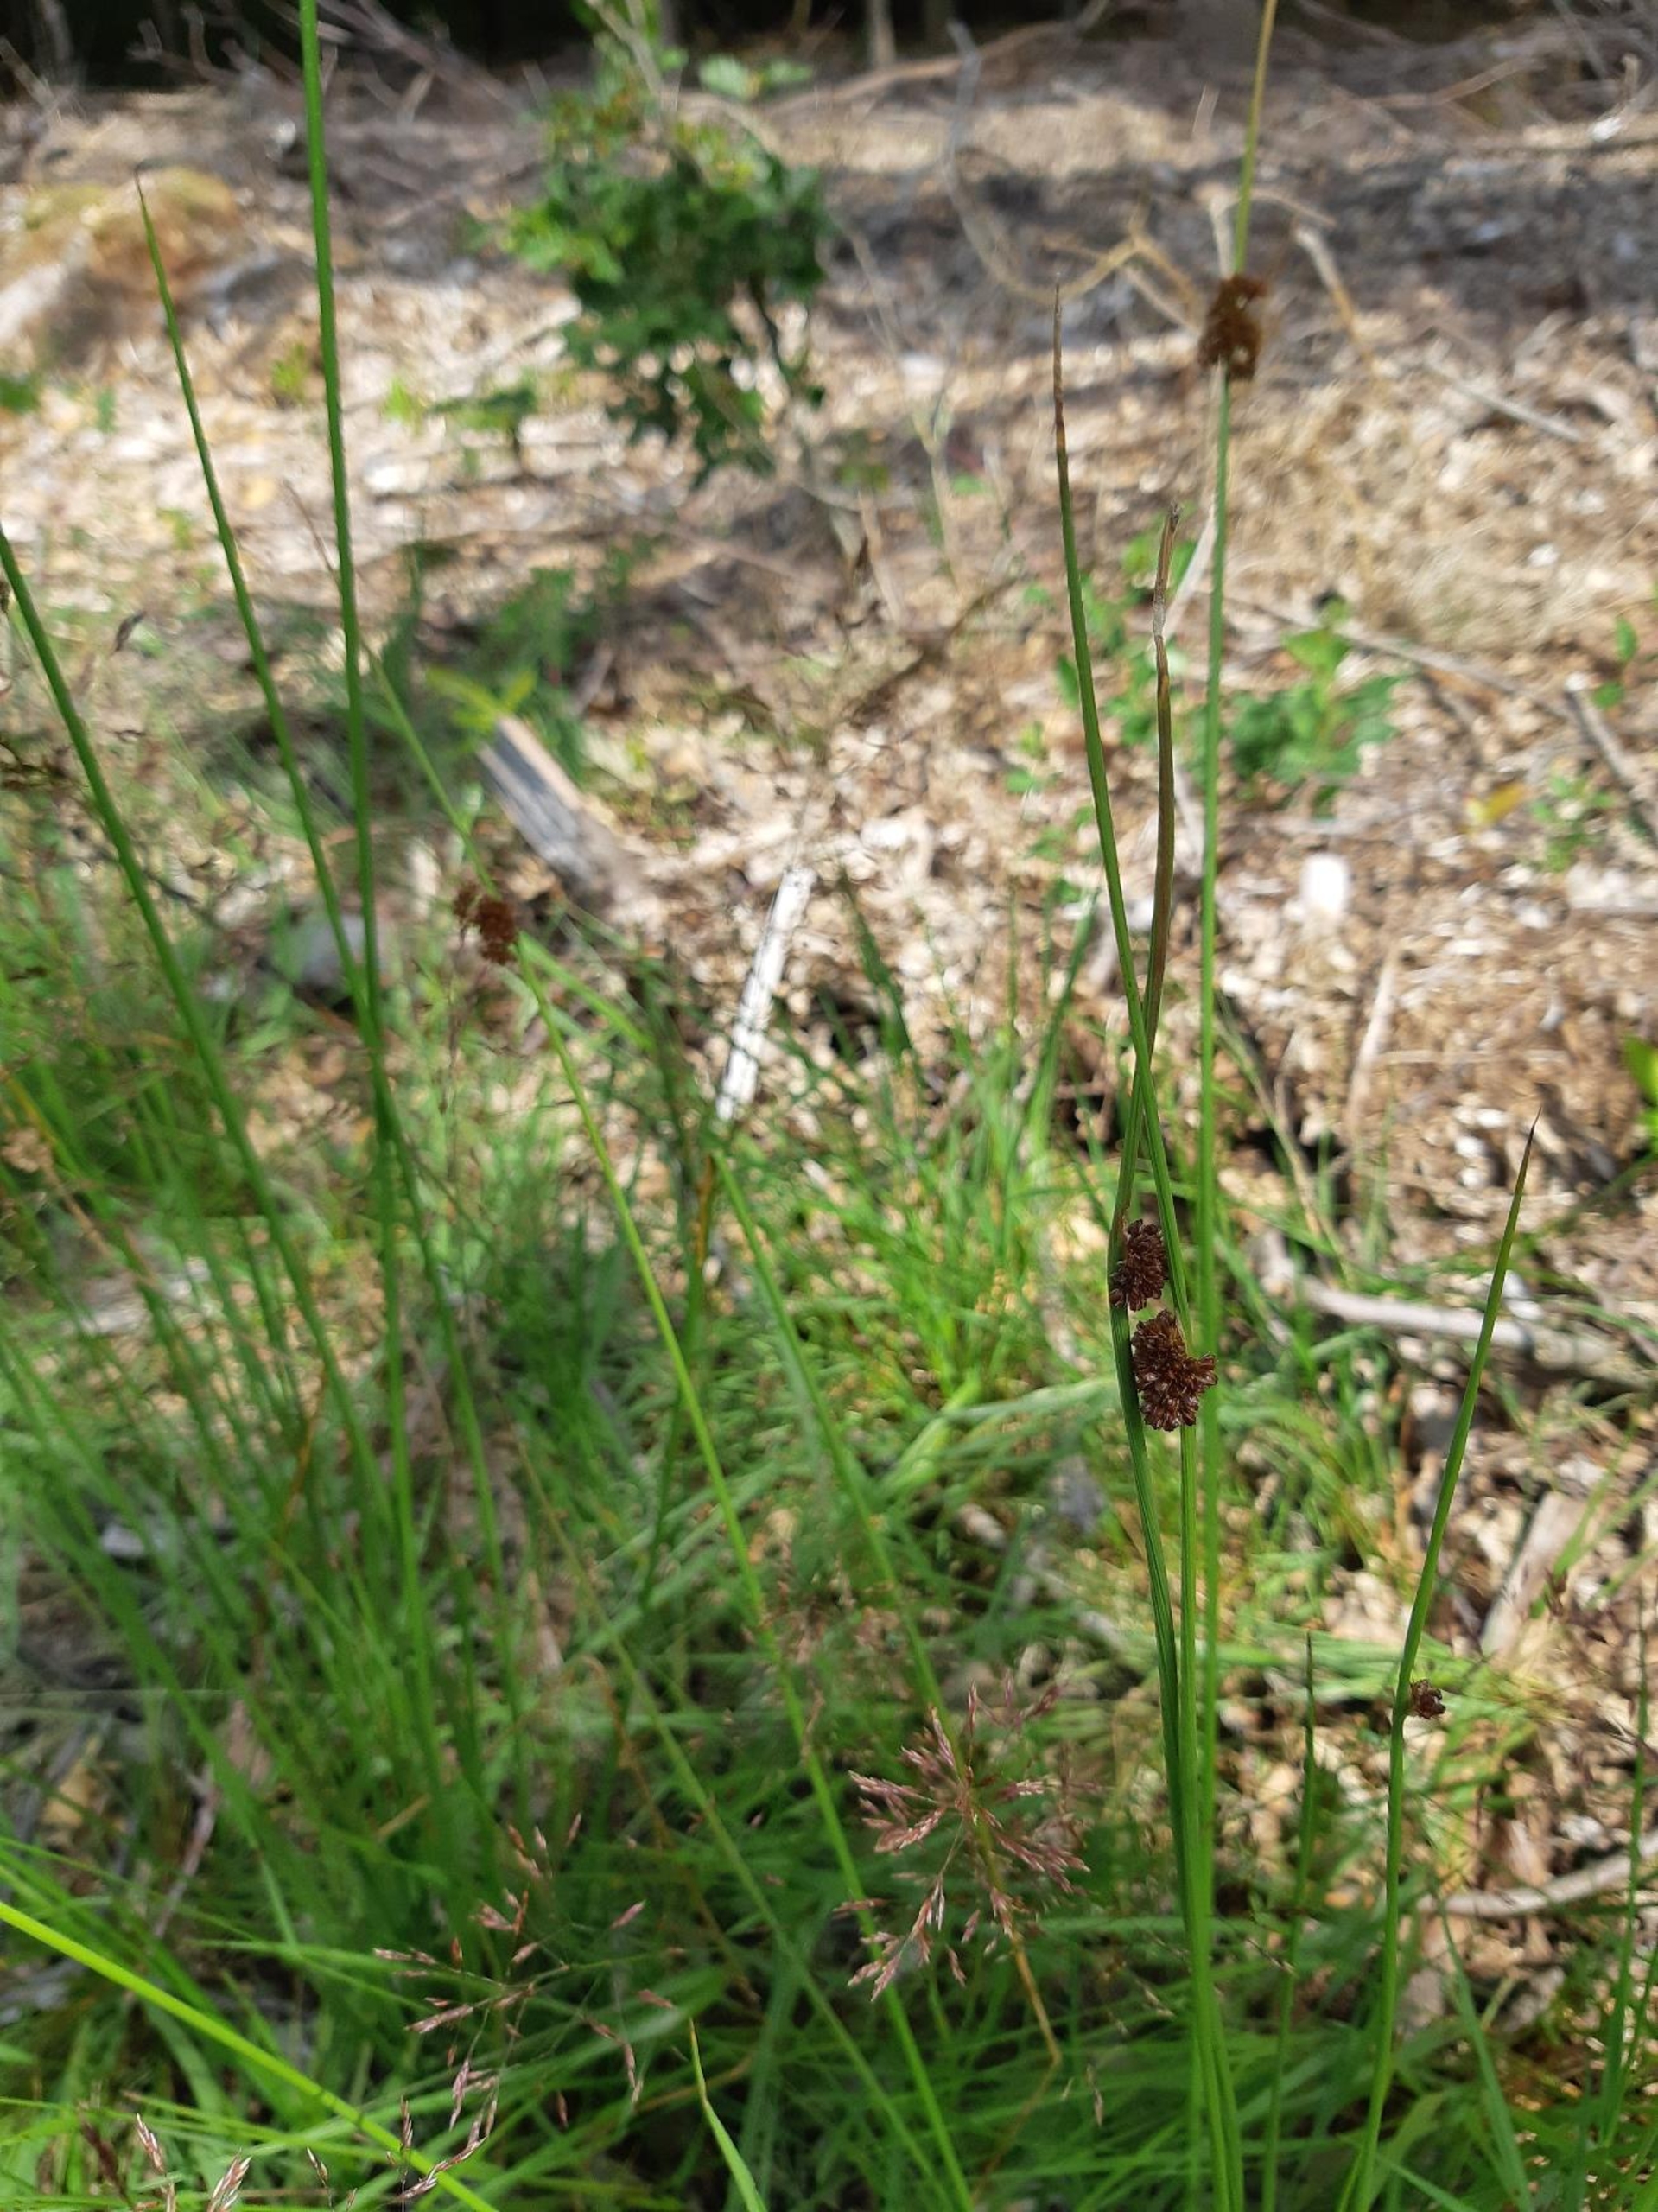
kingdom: Plantae
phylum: Tracheophyta
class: Liliopsida
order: Poales
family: Juncaceae
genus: Juncus
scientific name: Juncus conglomeratus
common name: Knop-siv
